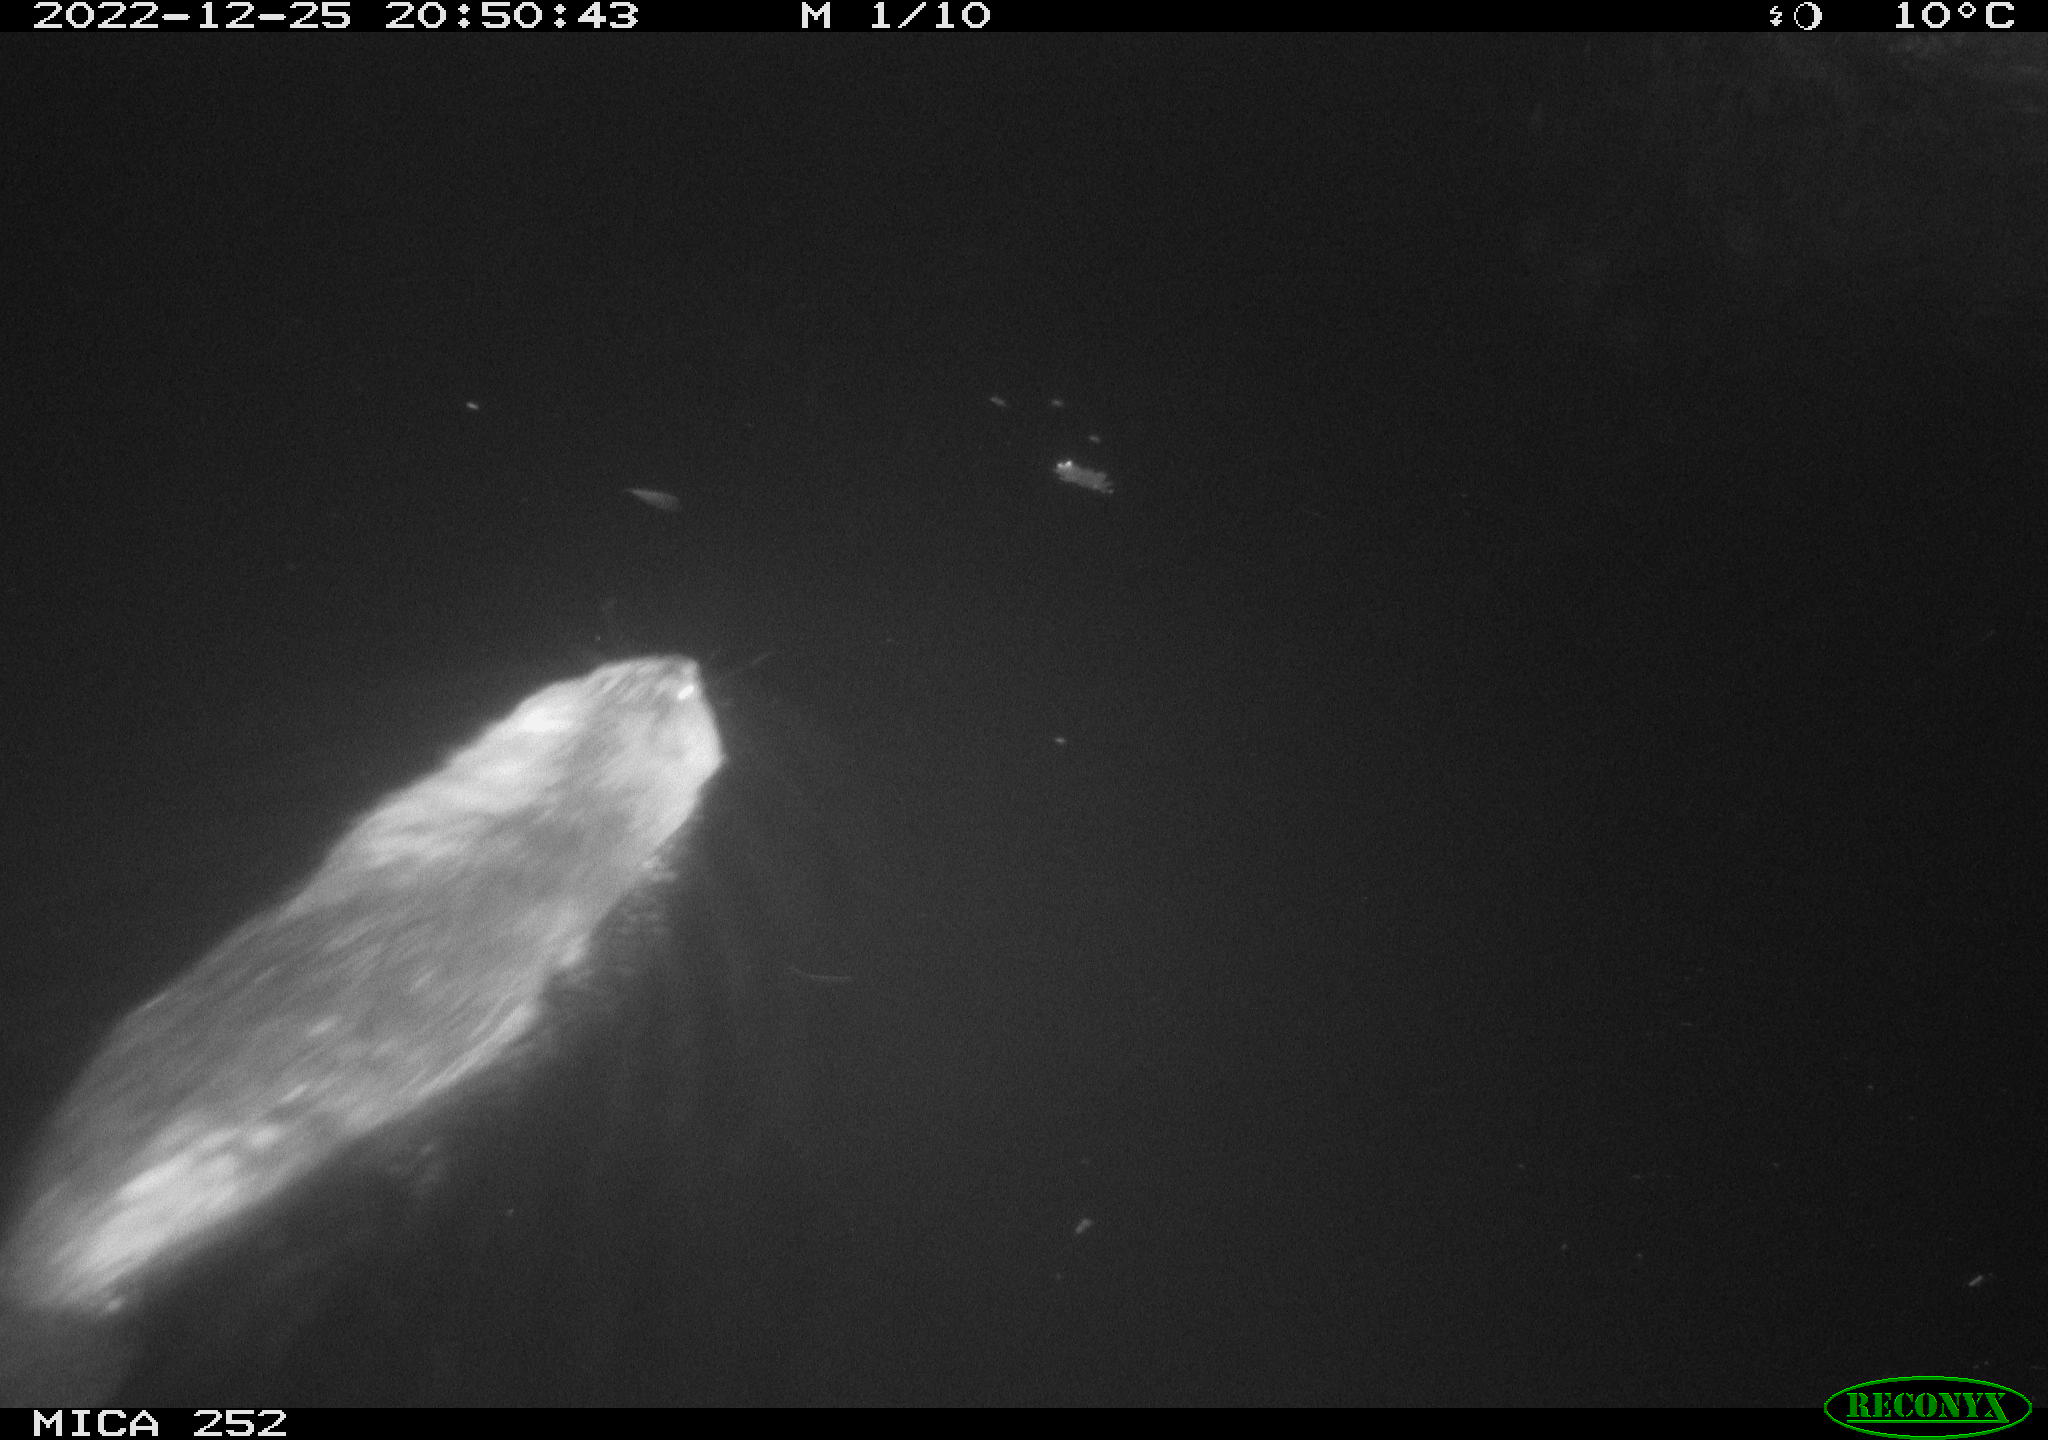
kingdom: Animalia
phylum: Chordata
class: Mammalia
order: Rodentia
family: Castoridae
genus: Castor
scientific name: Castor fiber
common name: Eurasian beaver
